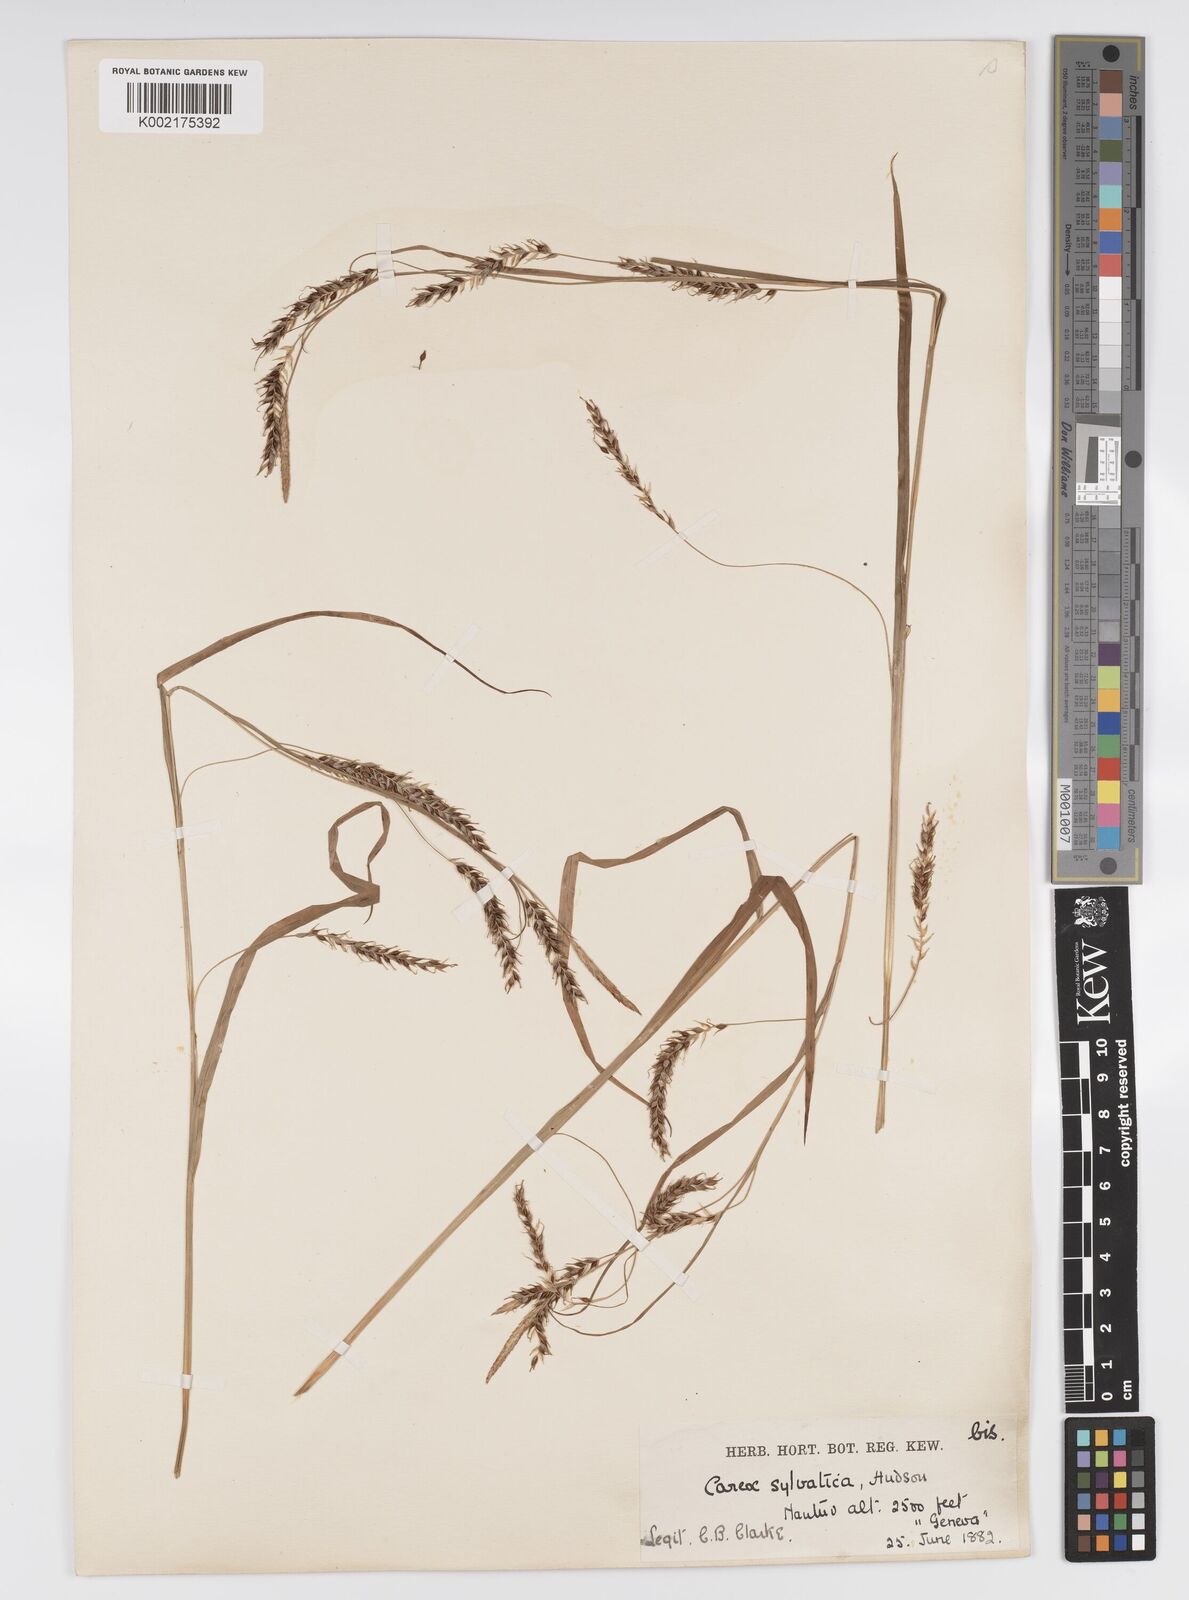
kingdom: Plantae
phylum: Tracheophyta
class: Liliopsida
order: Poales
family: Cyperaceae
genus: Carex
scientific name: Carex sylvatica
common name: Wood-sedge
